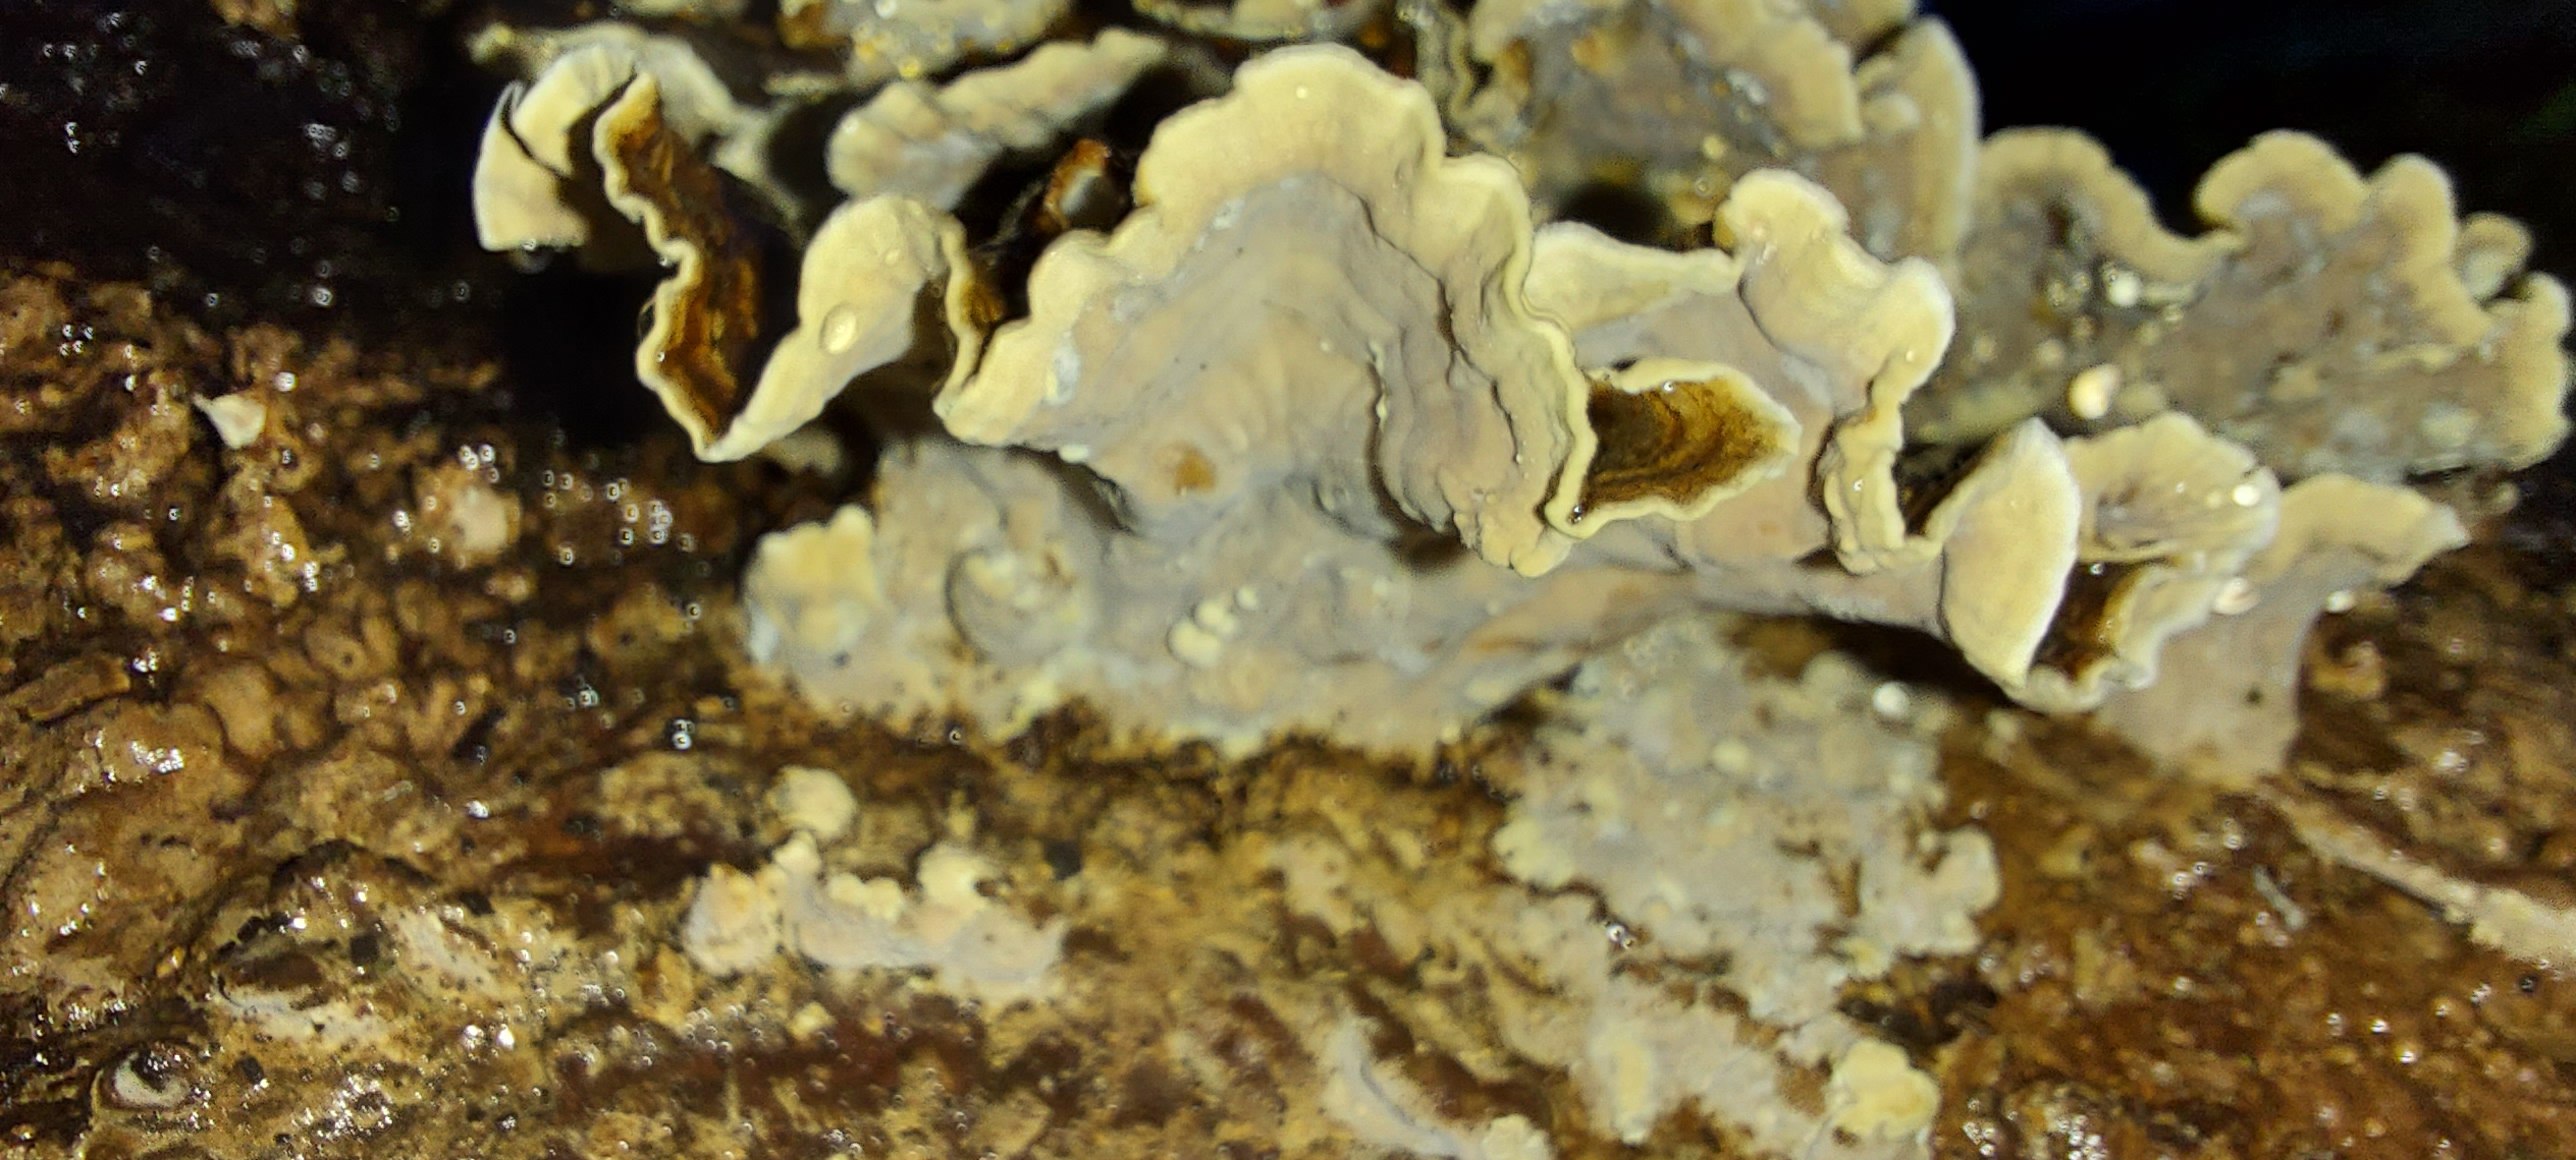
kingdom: Fungi
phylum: Basidiomycota
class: Agaricomycetes
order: Russulales
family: Hericiaceae
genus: Laxitextum
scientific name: Laxitextum bicolor
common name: tvefarvet filtskind
